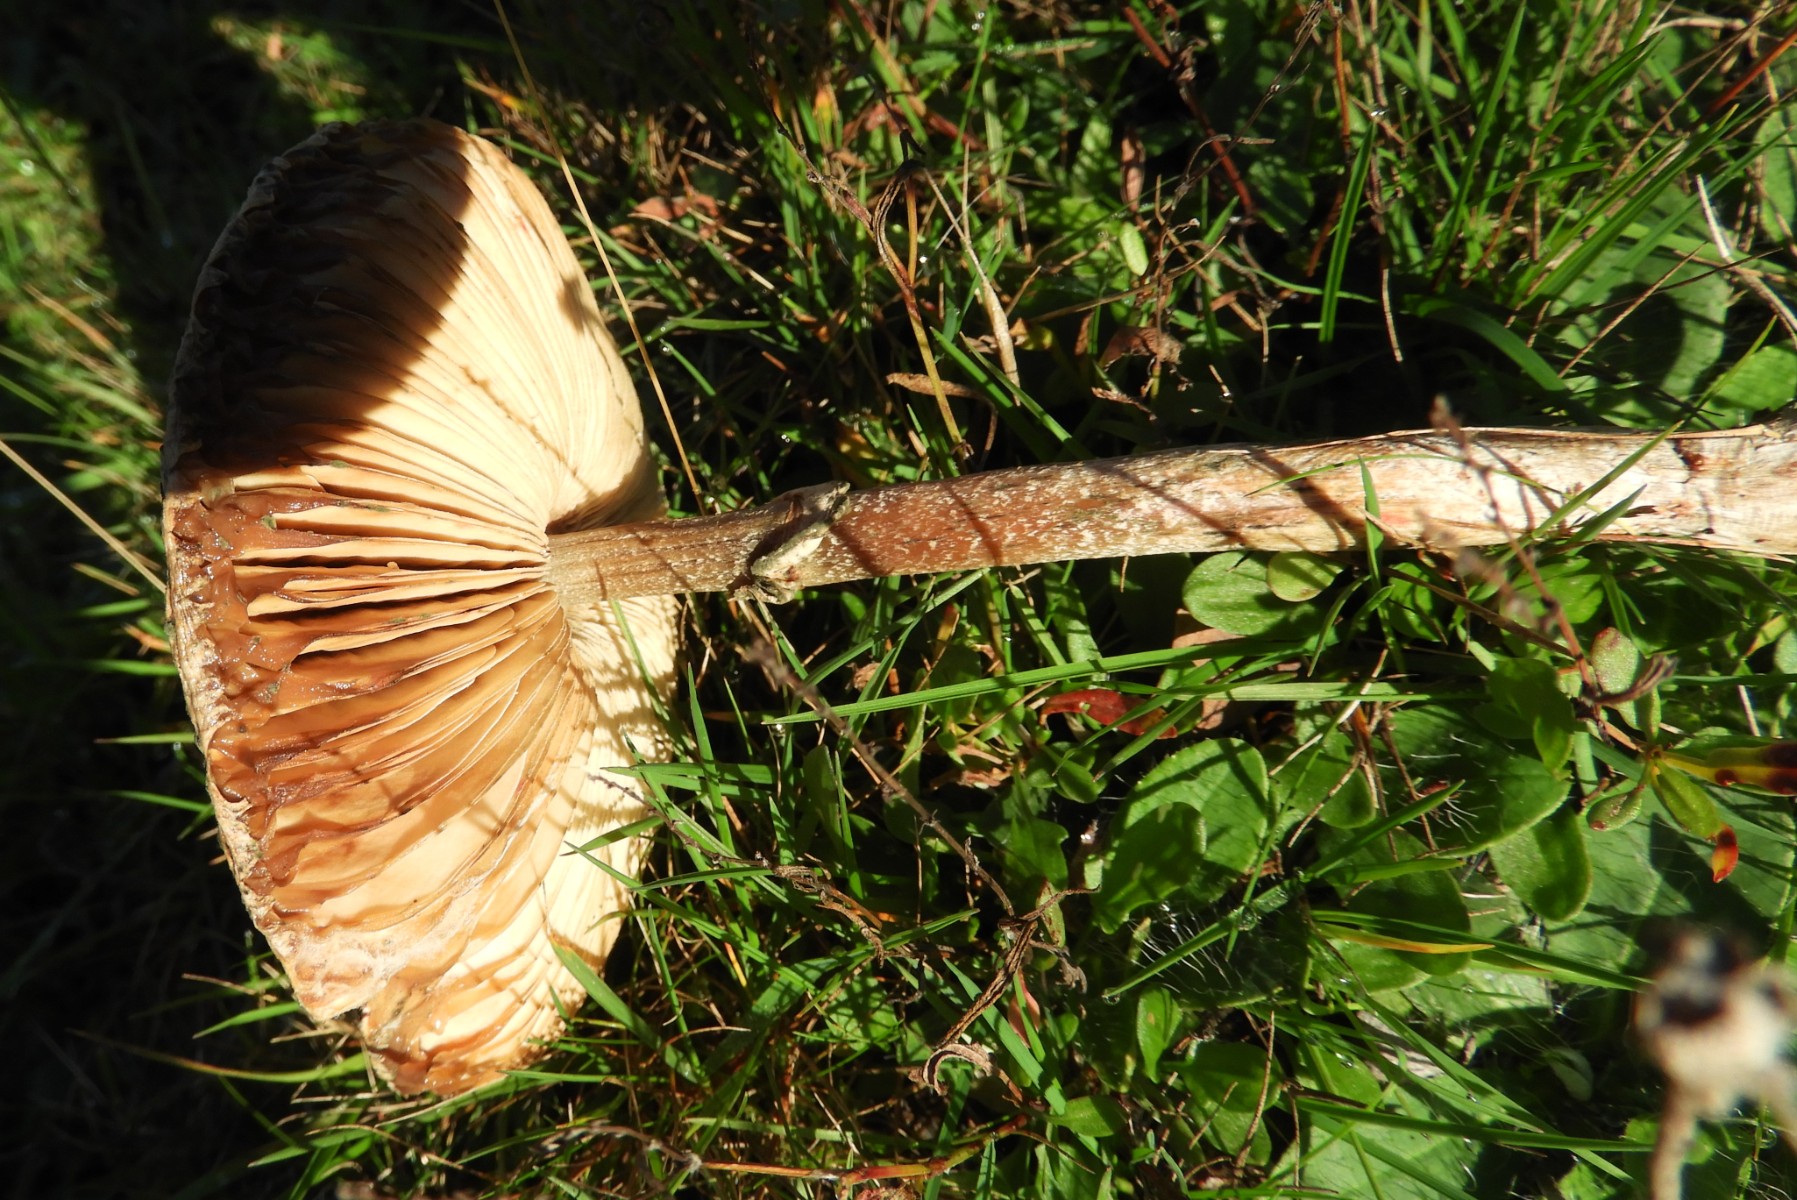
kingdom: Fungi
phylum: Basidiomycota
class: Agaricomycetes
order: Agaricales
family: Agaricaceae
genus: Macrolepiota
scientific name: Macrolepiota mastoidea
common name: puklet kæmpeparasolhat
